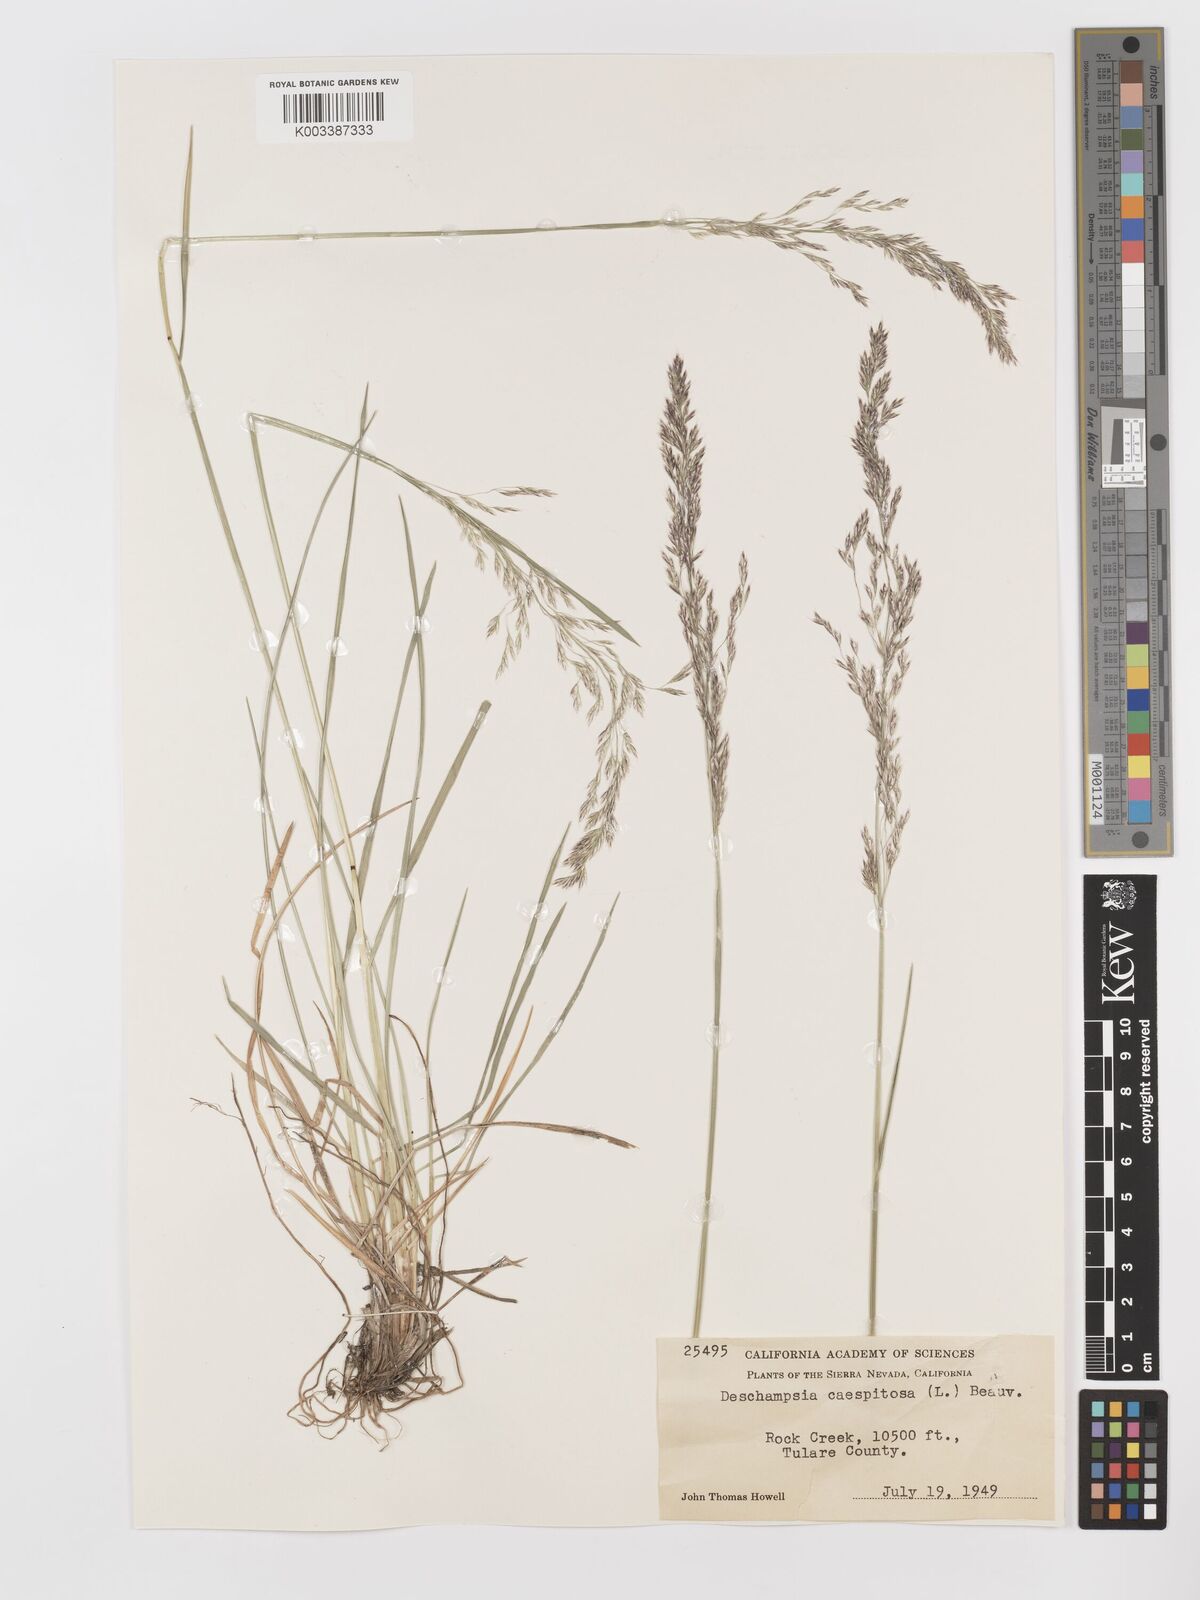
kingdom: Plantae
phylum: Tracheophyta
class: Liliopsida
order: Poales
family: Poaceae
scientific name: Poaceae
